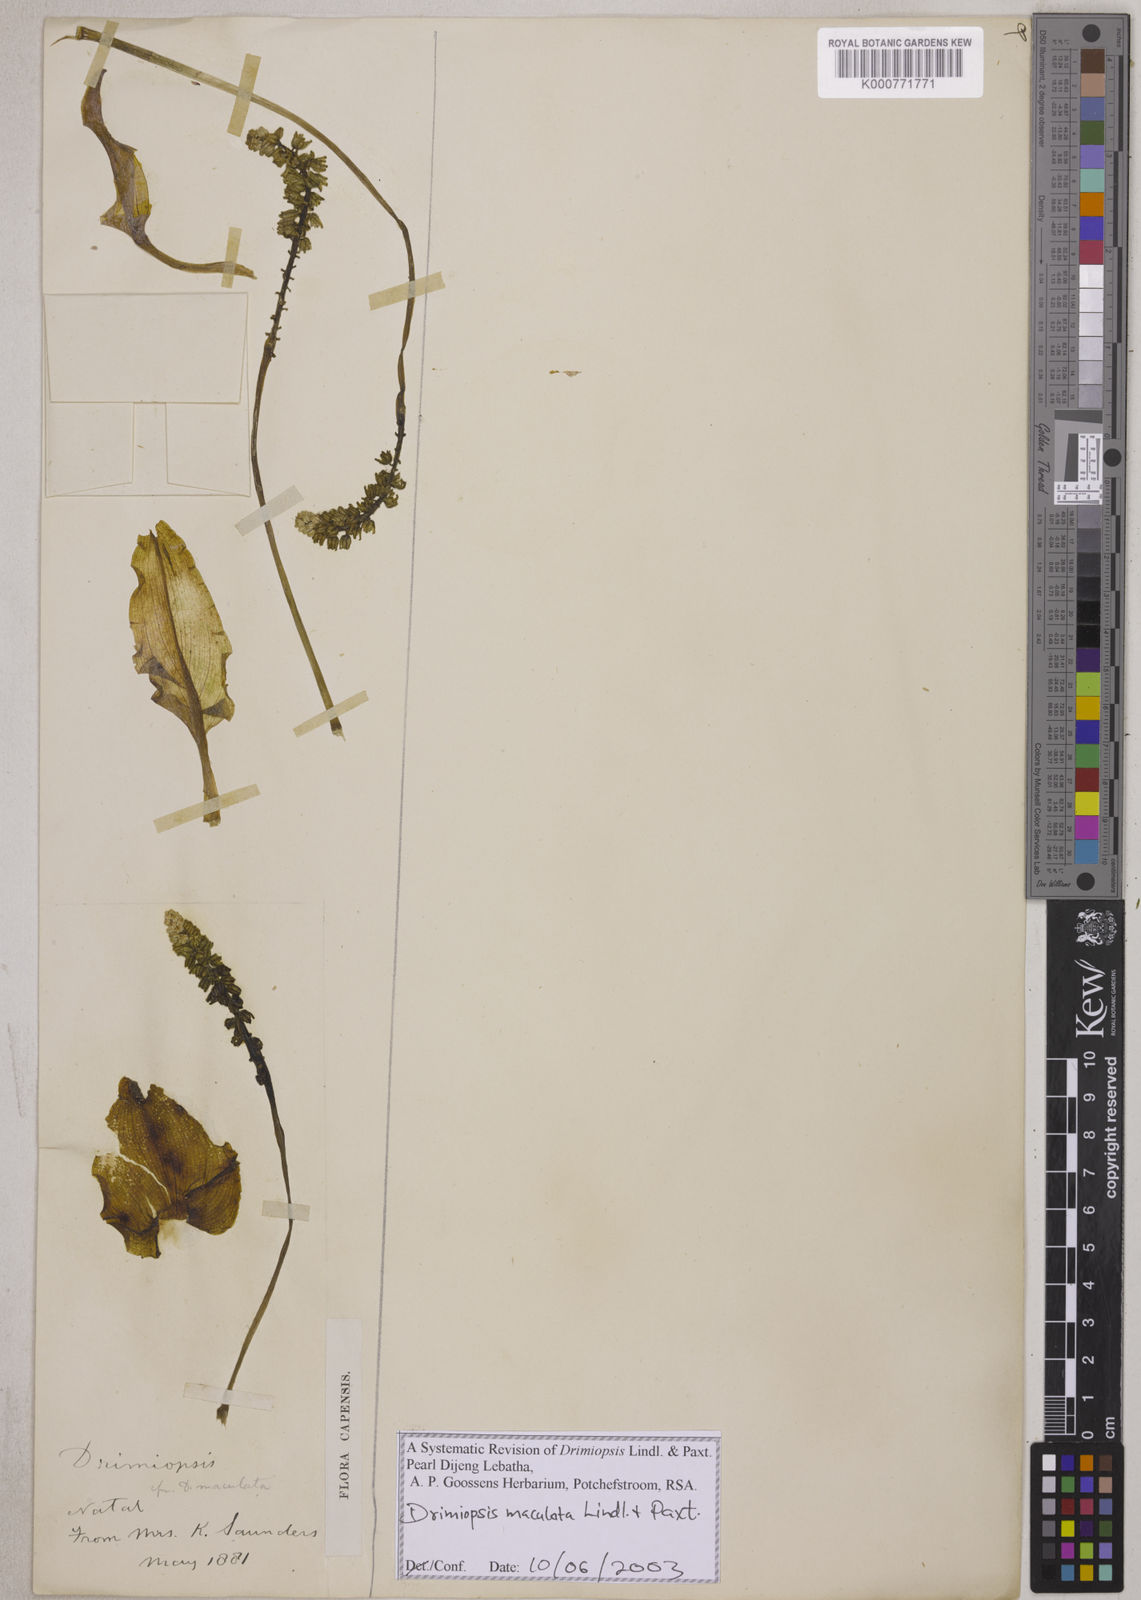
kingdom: Plantae
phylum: Tracheophyta
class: Liliopsida
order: Asparagales
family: Asparagaceae
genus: Drimiopsis
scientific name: Drimiopsis maculata
